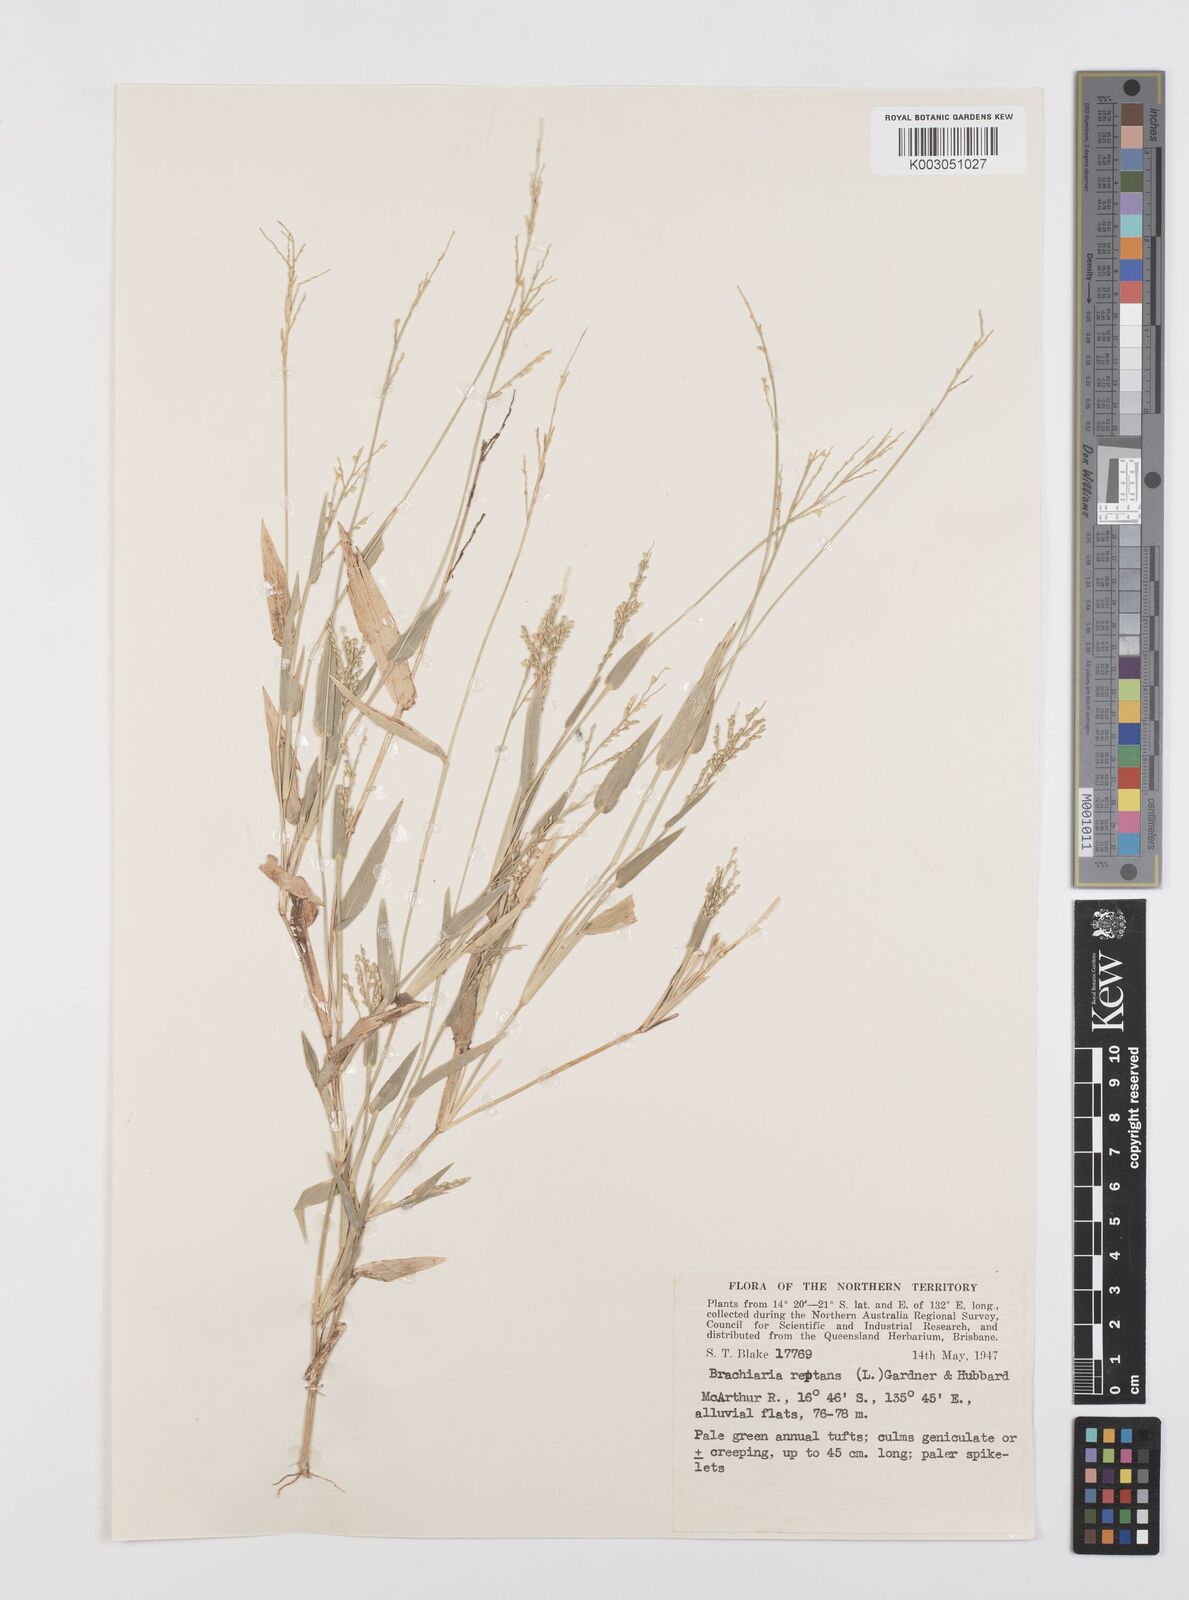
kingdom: Plantae
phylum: Tracheophyta
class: Liliopsida
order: Poales
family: Poaceae
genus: Urochloa
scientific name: Urochloa reptans
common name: Sprawling signalgrass
